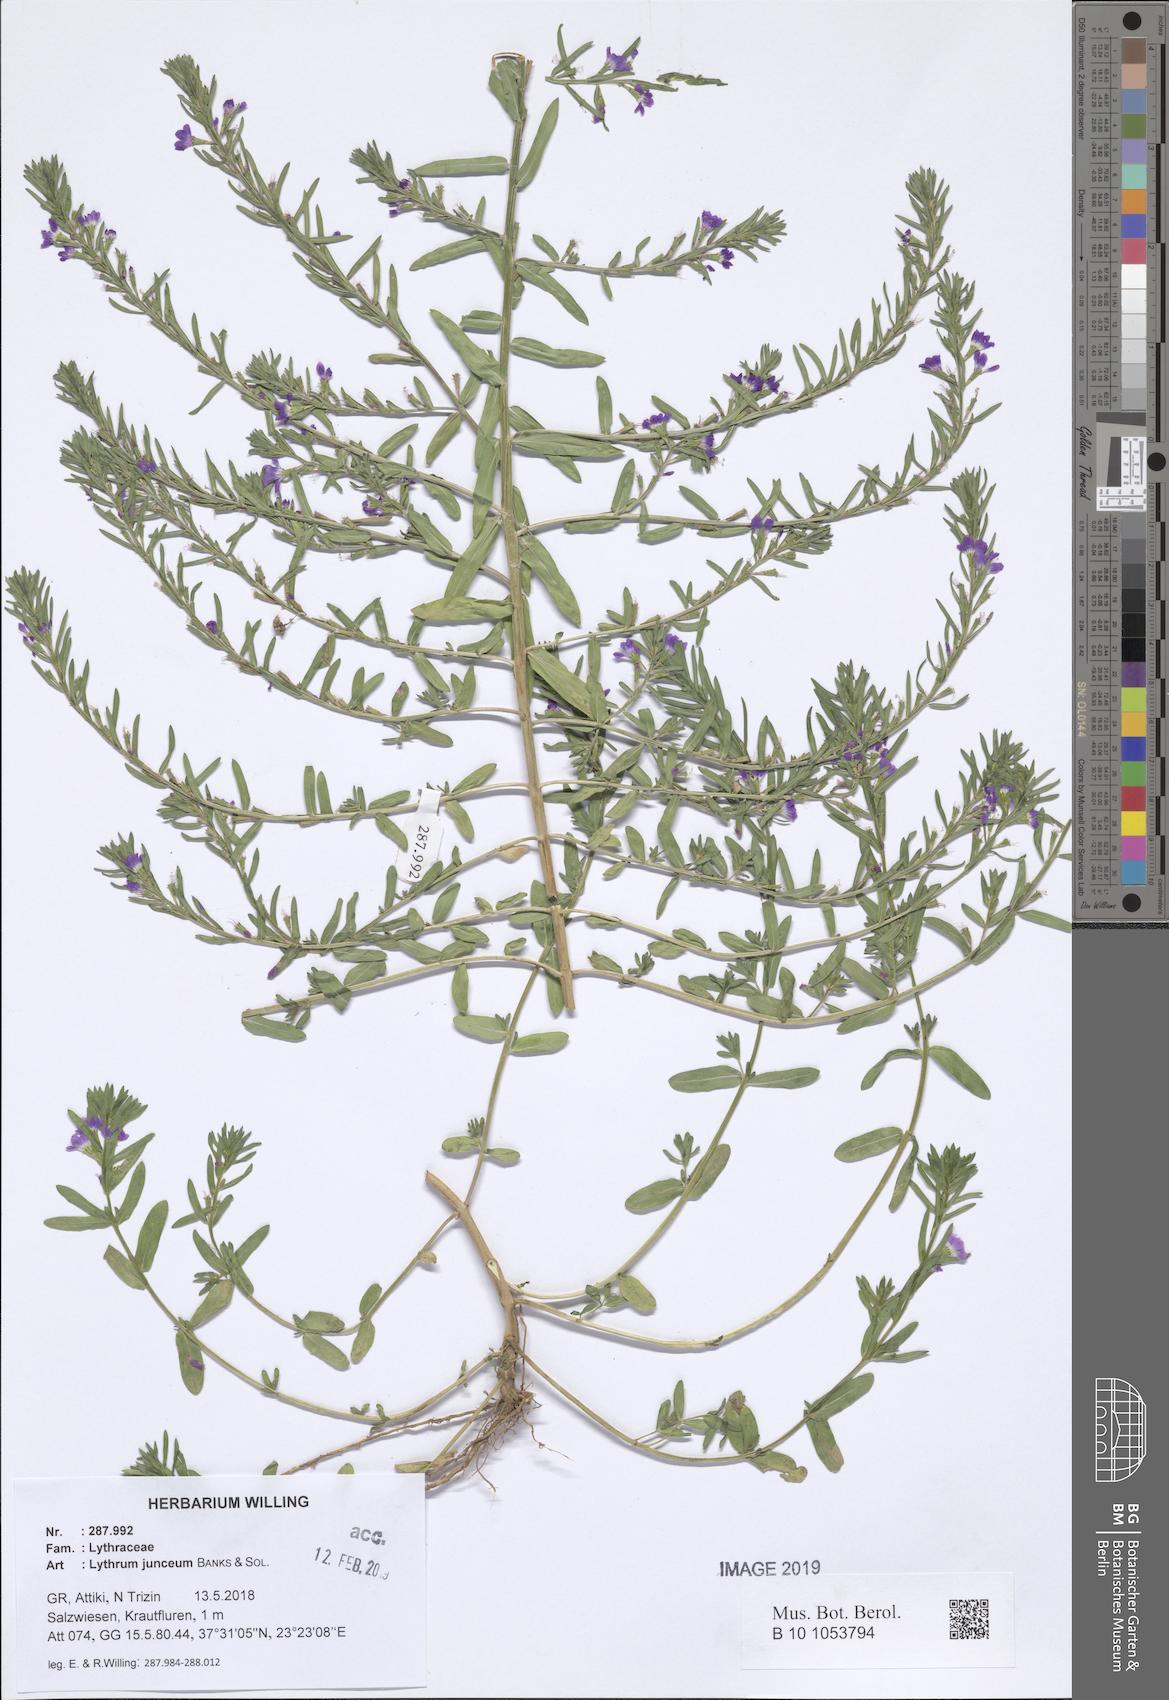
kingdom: Plantae
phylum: Tracheophyta
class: Magnoliopsida
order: Myrtales
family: Lythraceae
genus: Lythrum
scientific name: Lythrum junceum
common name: False grass-poly
